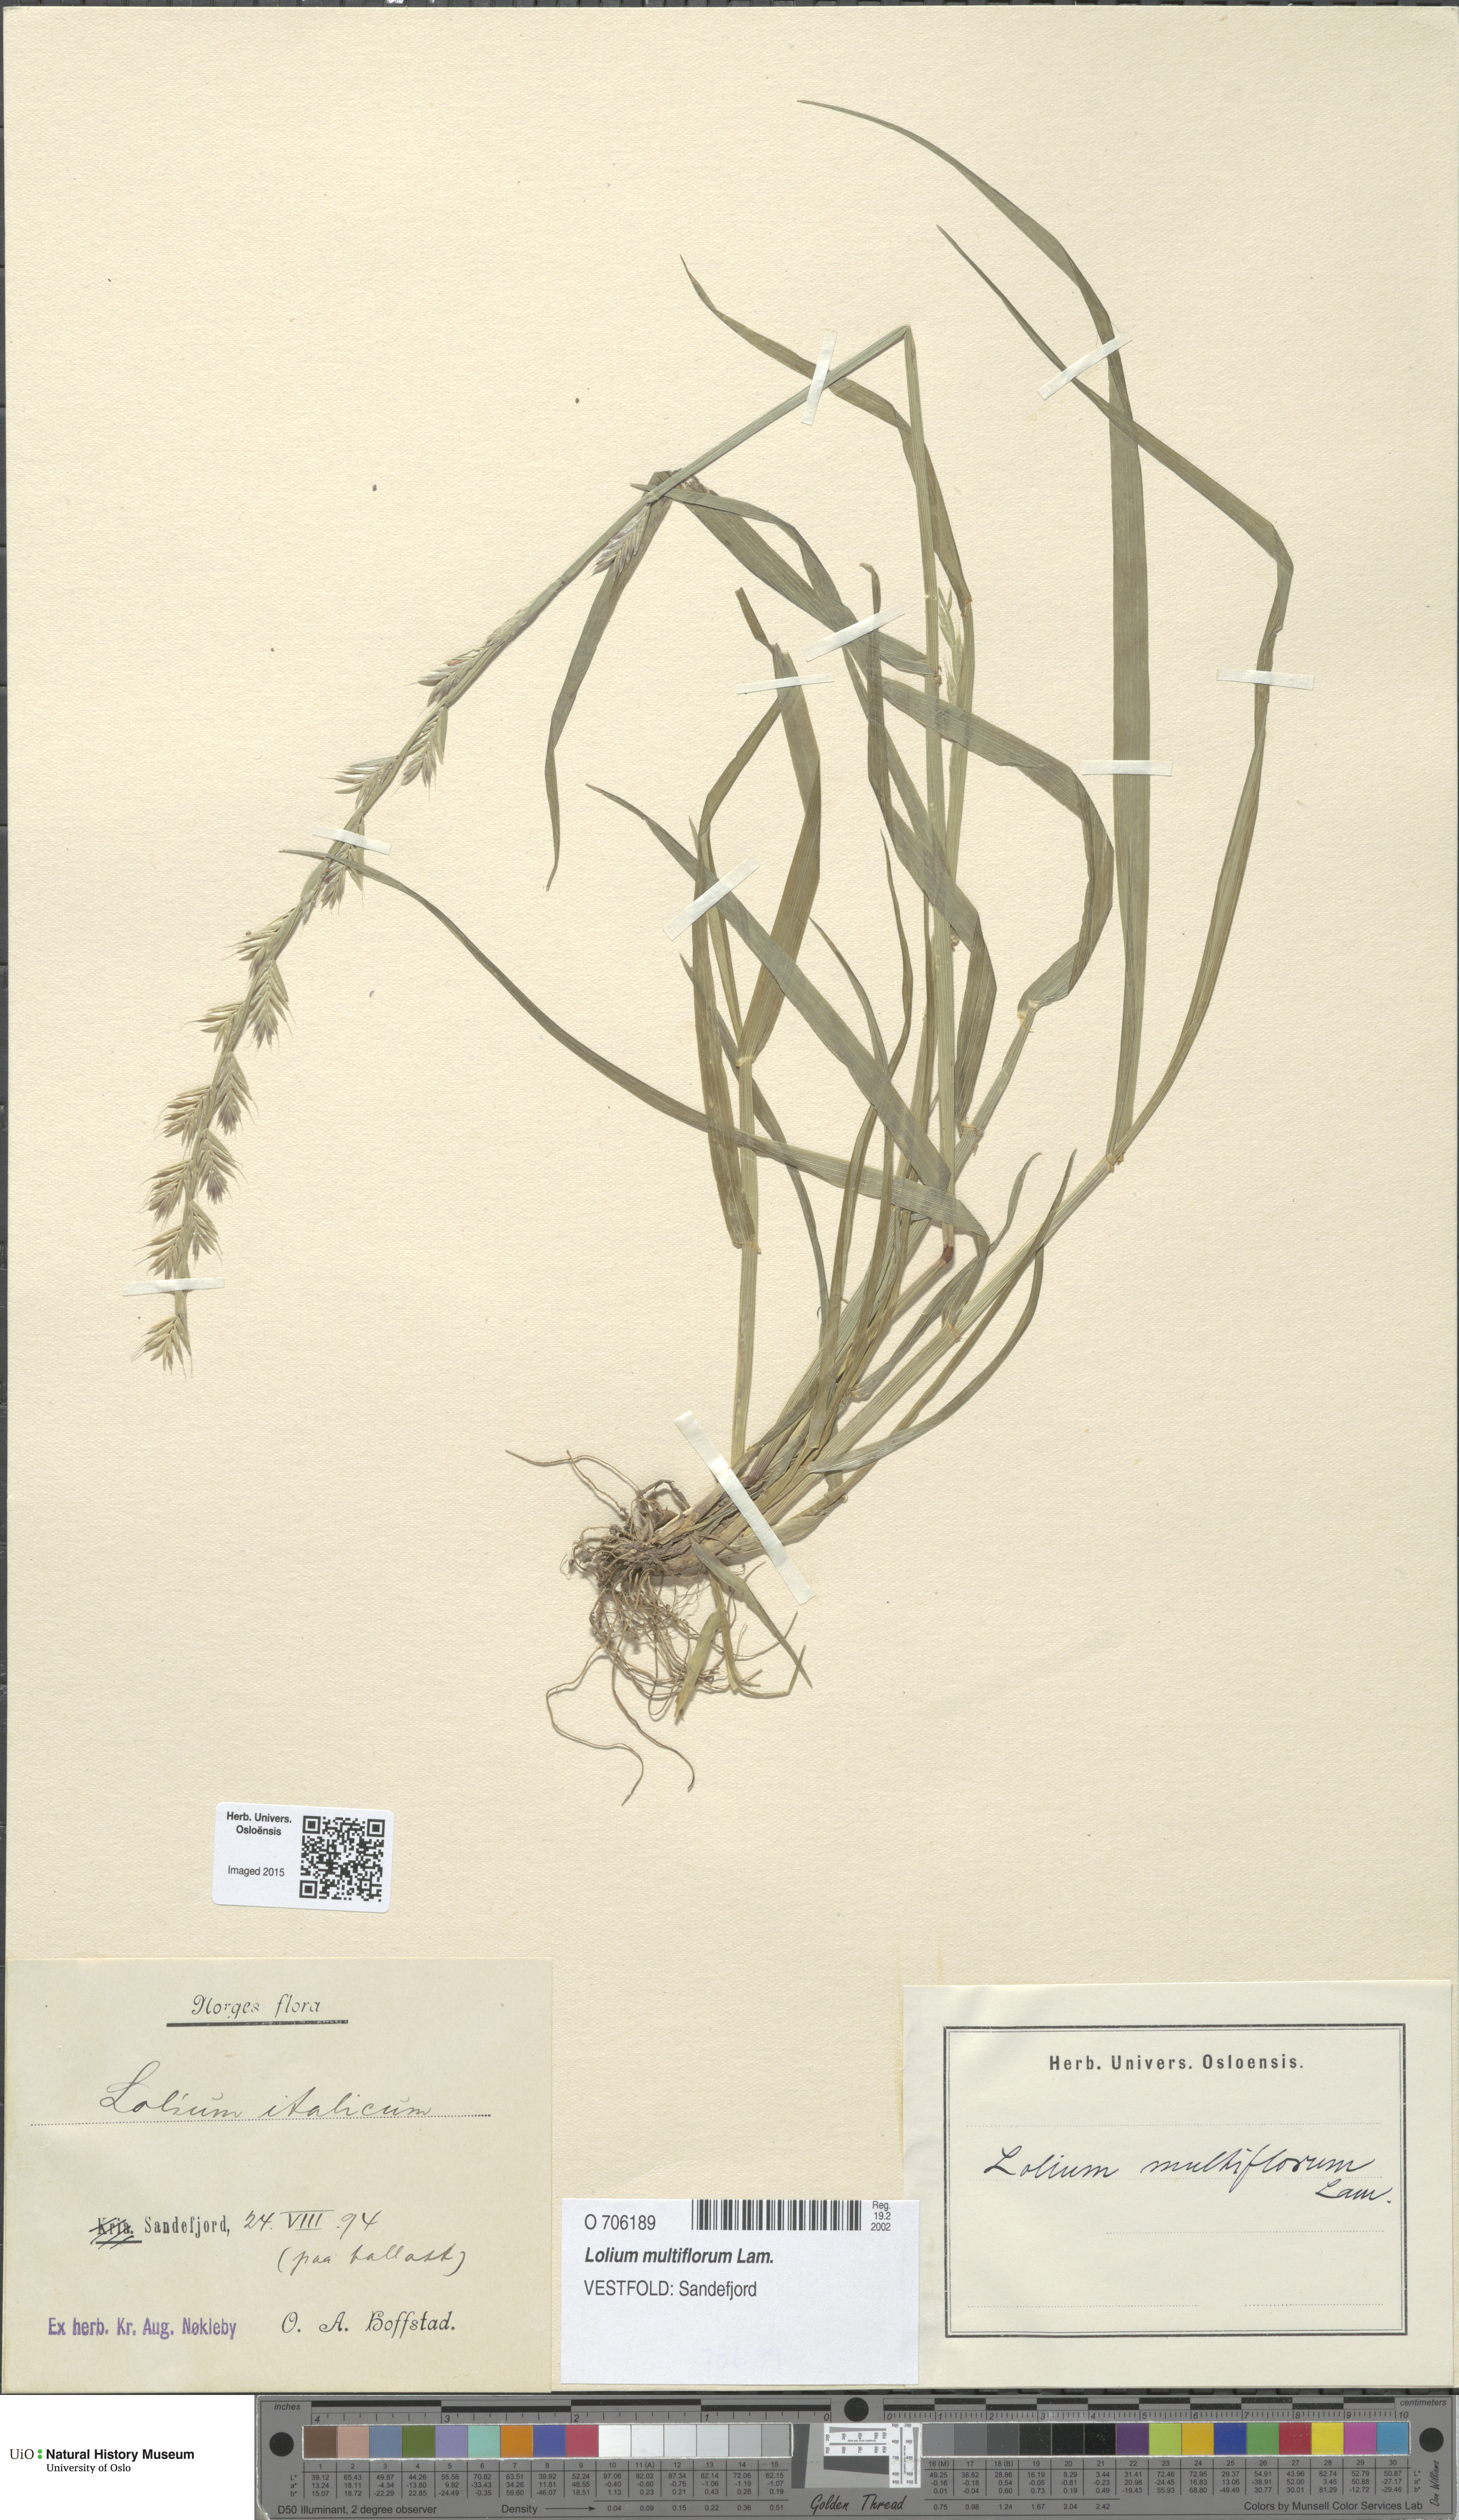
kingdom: Plantae
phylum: Tracheophyta
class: Liliopsida
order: Poales
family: Poaceae
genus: Lolium
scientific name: Lolium multiflorum
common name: Annual ryegrass
